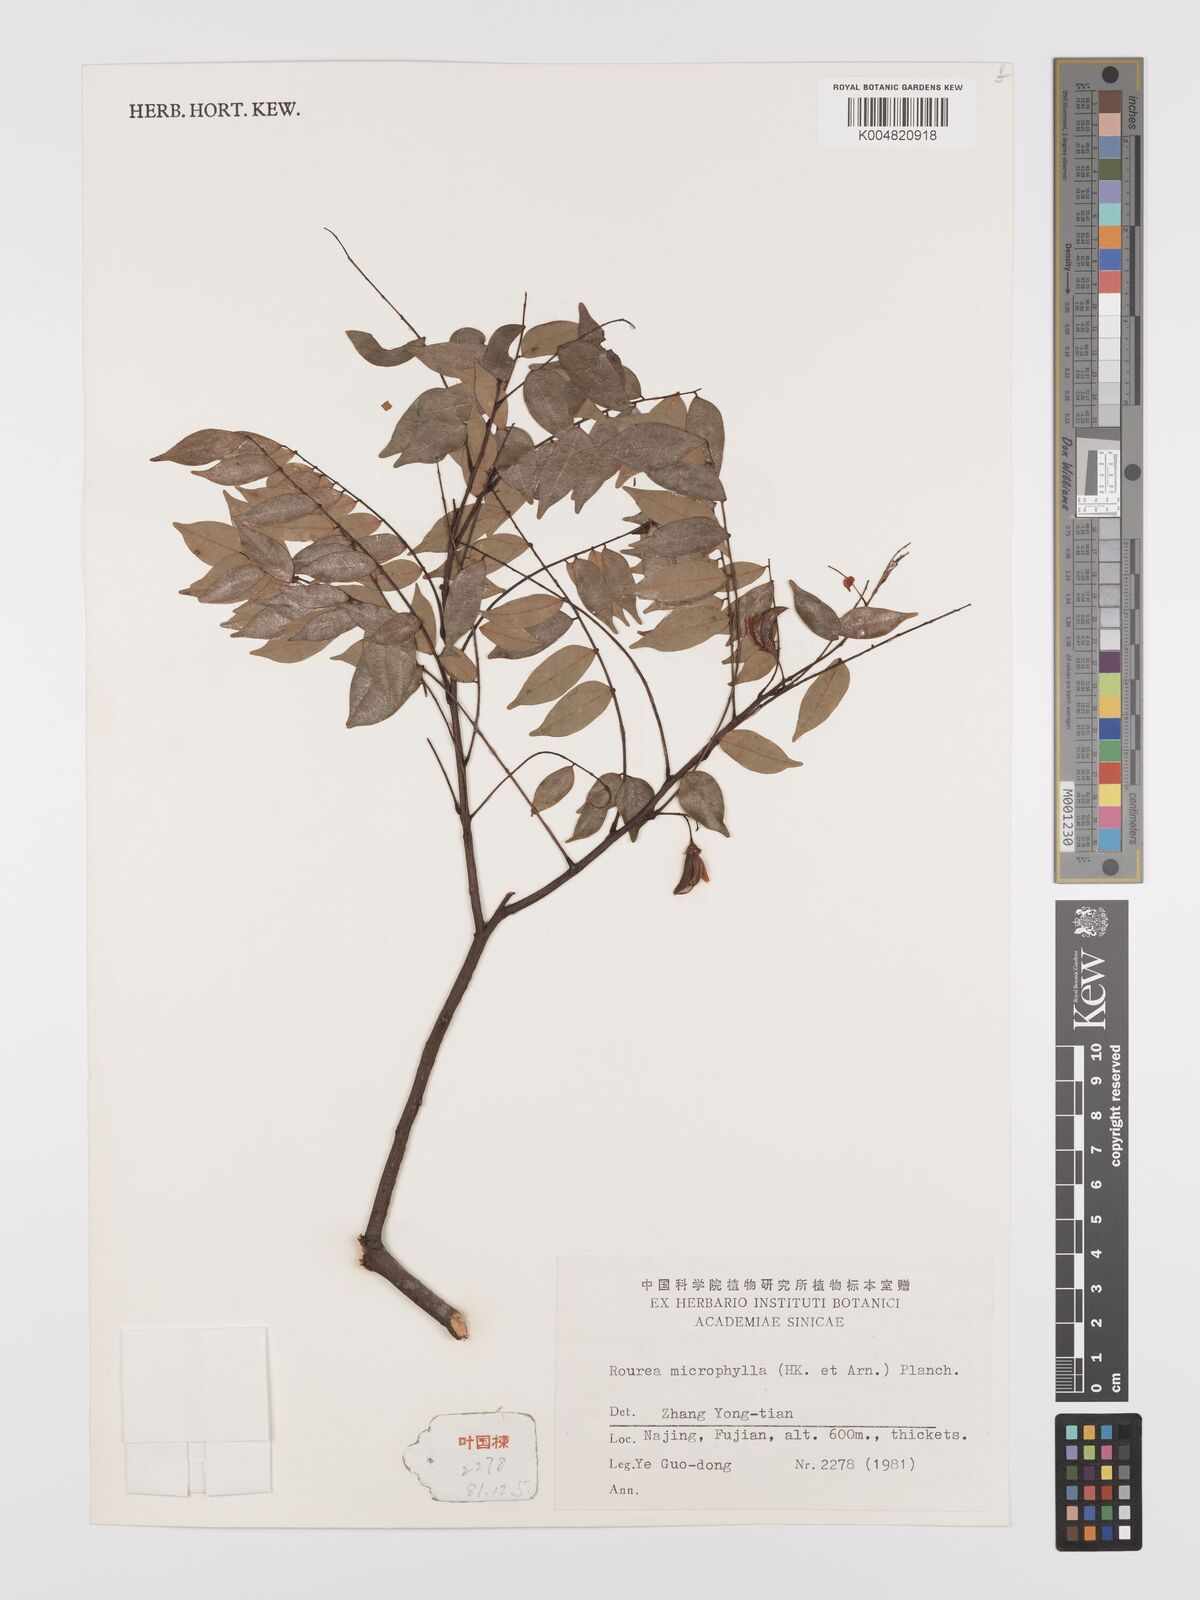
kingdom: Plantae
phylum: Tracheophyta
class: Magnoliopsida
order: Oxalidales
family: Connaraceae
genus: Rourea
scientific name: Rourea microphylla
